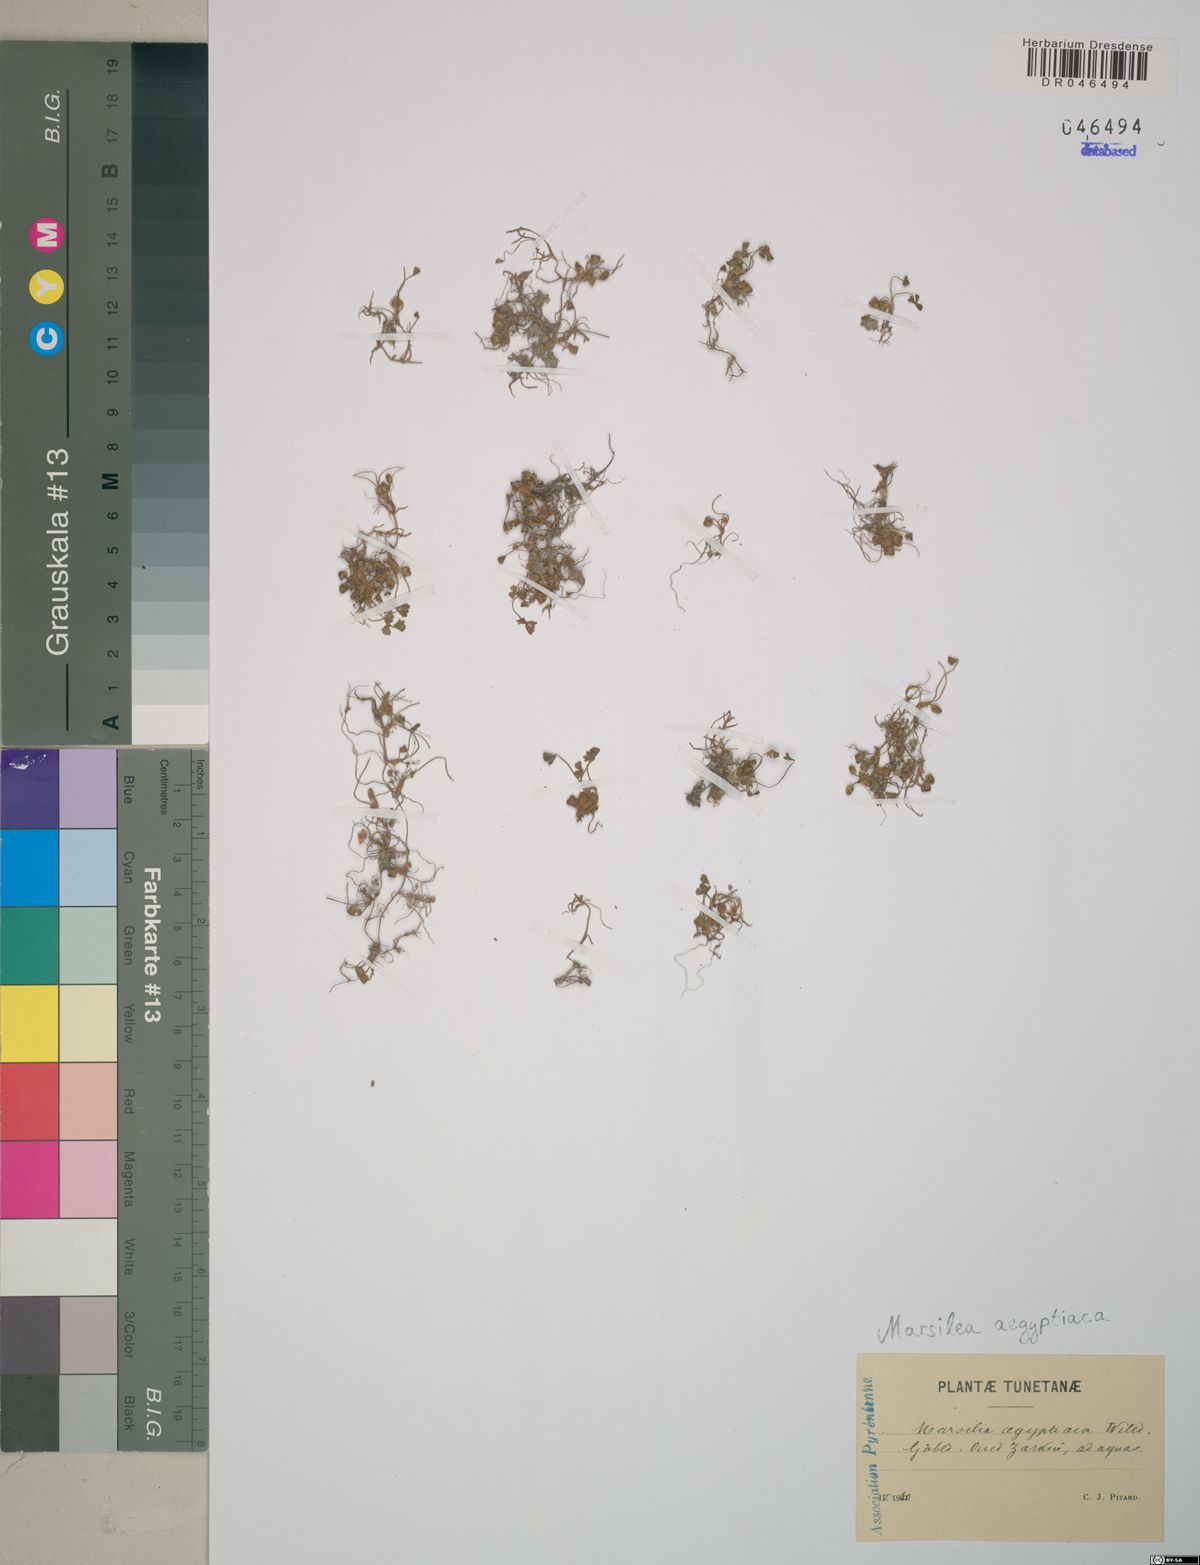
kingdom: Plantae
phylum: Tracheophyta
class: Polypodiopsida
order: Salviniales
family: Marsileaceae
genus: Marsilea
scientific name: Marsilea aegyptiaca
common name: Egyptian water-clover
